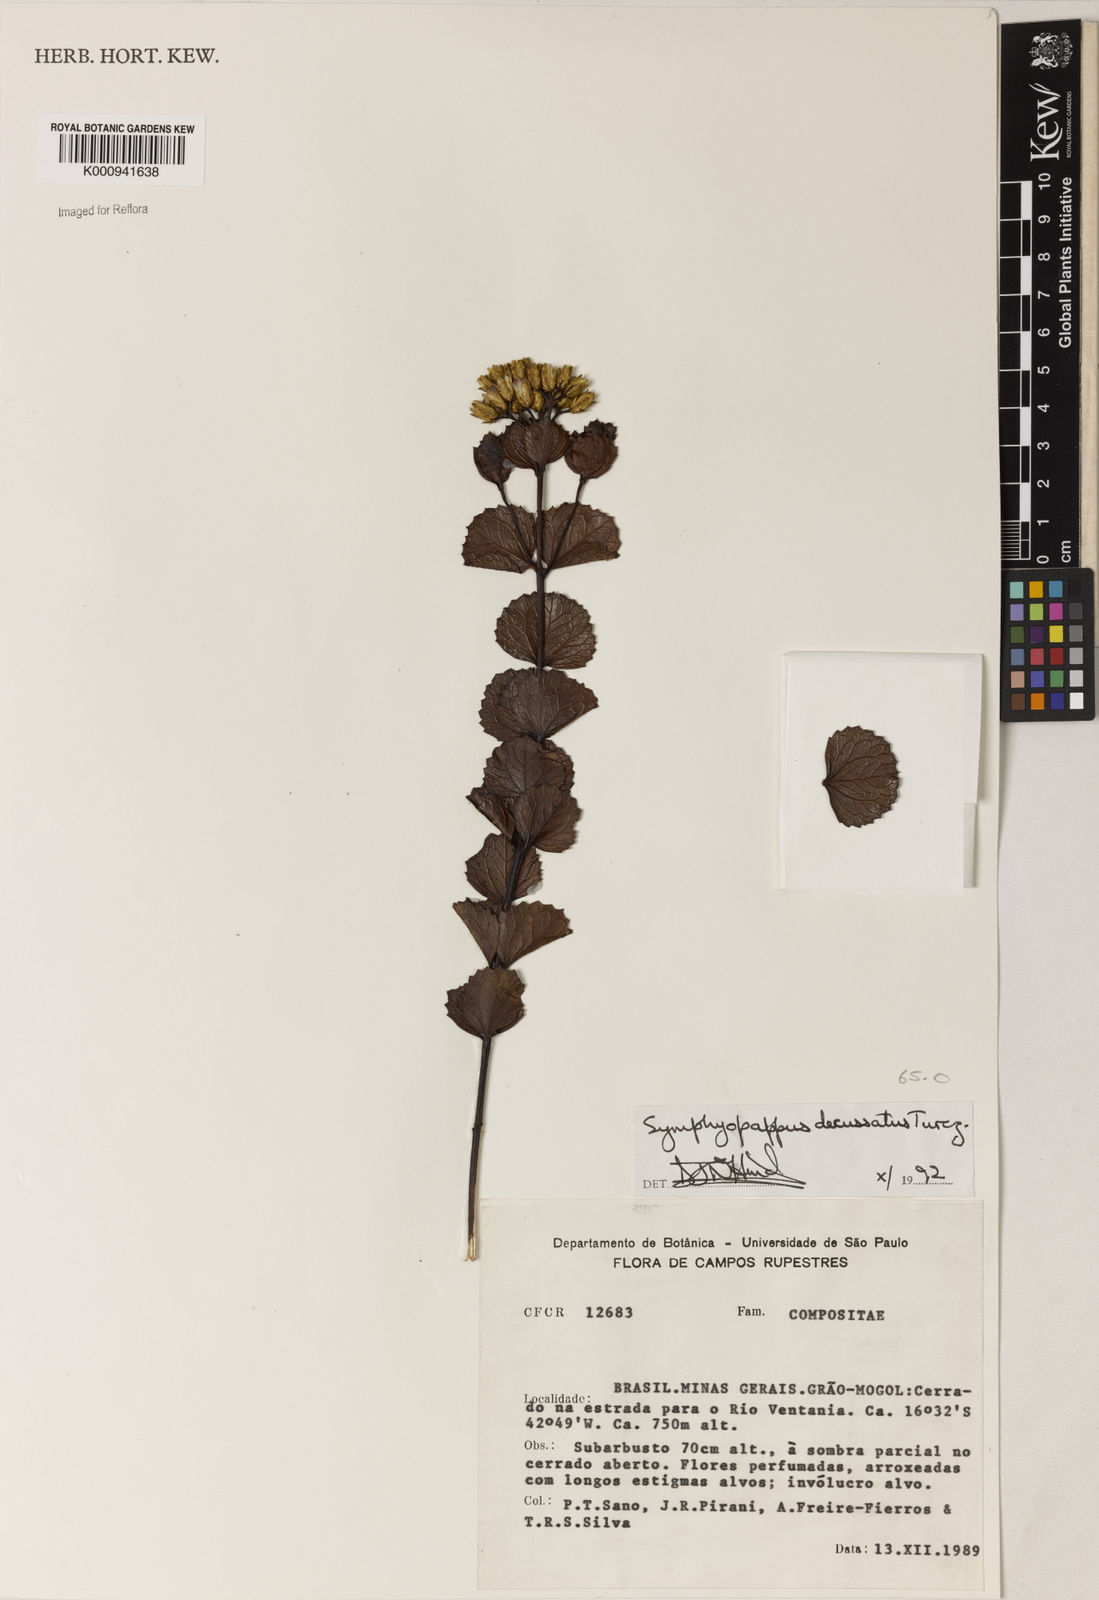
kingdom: Plantae
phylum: Tracheophyta
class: Magnoliopsida
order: Asterales
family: Asteraceae
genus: Symphyopappus
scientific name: Symphyopappus decussatus
